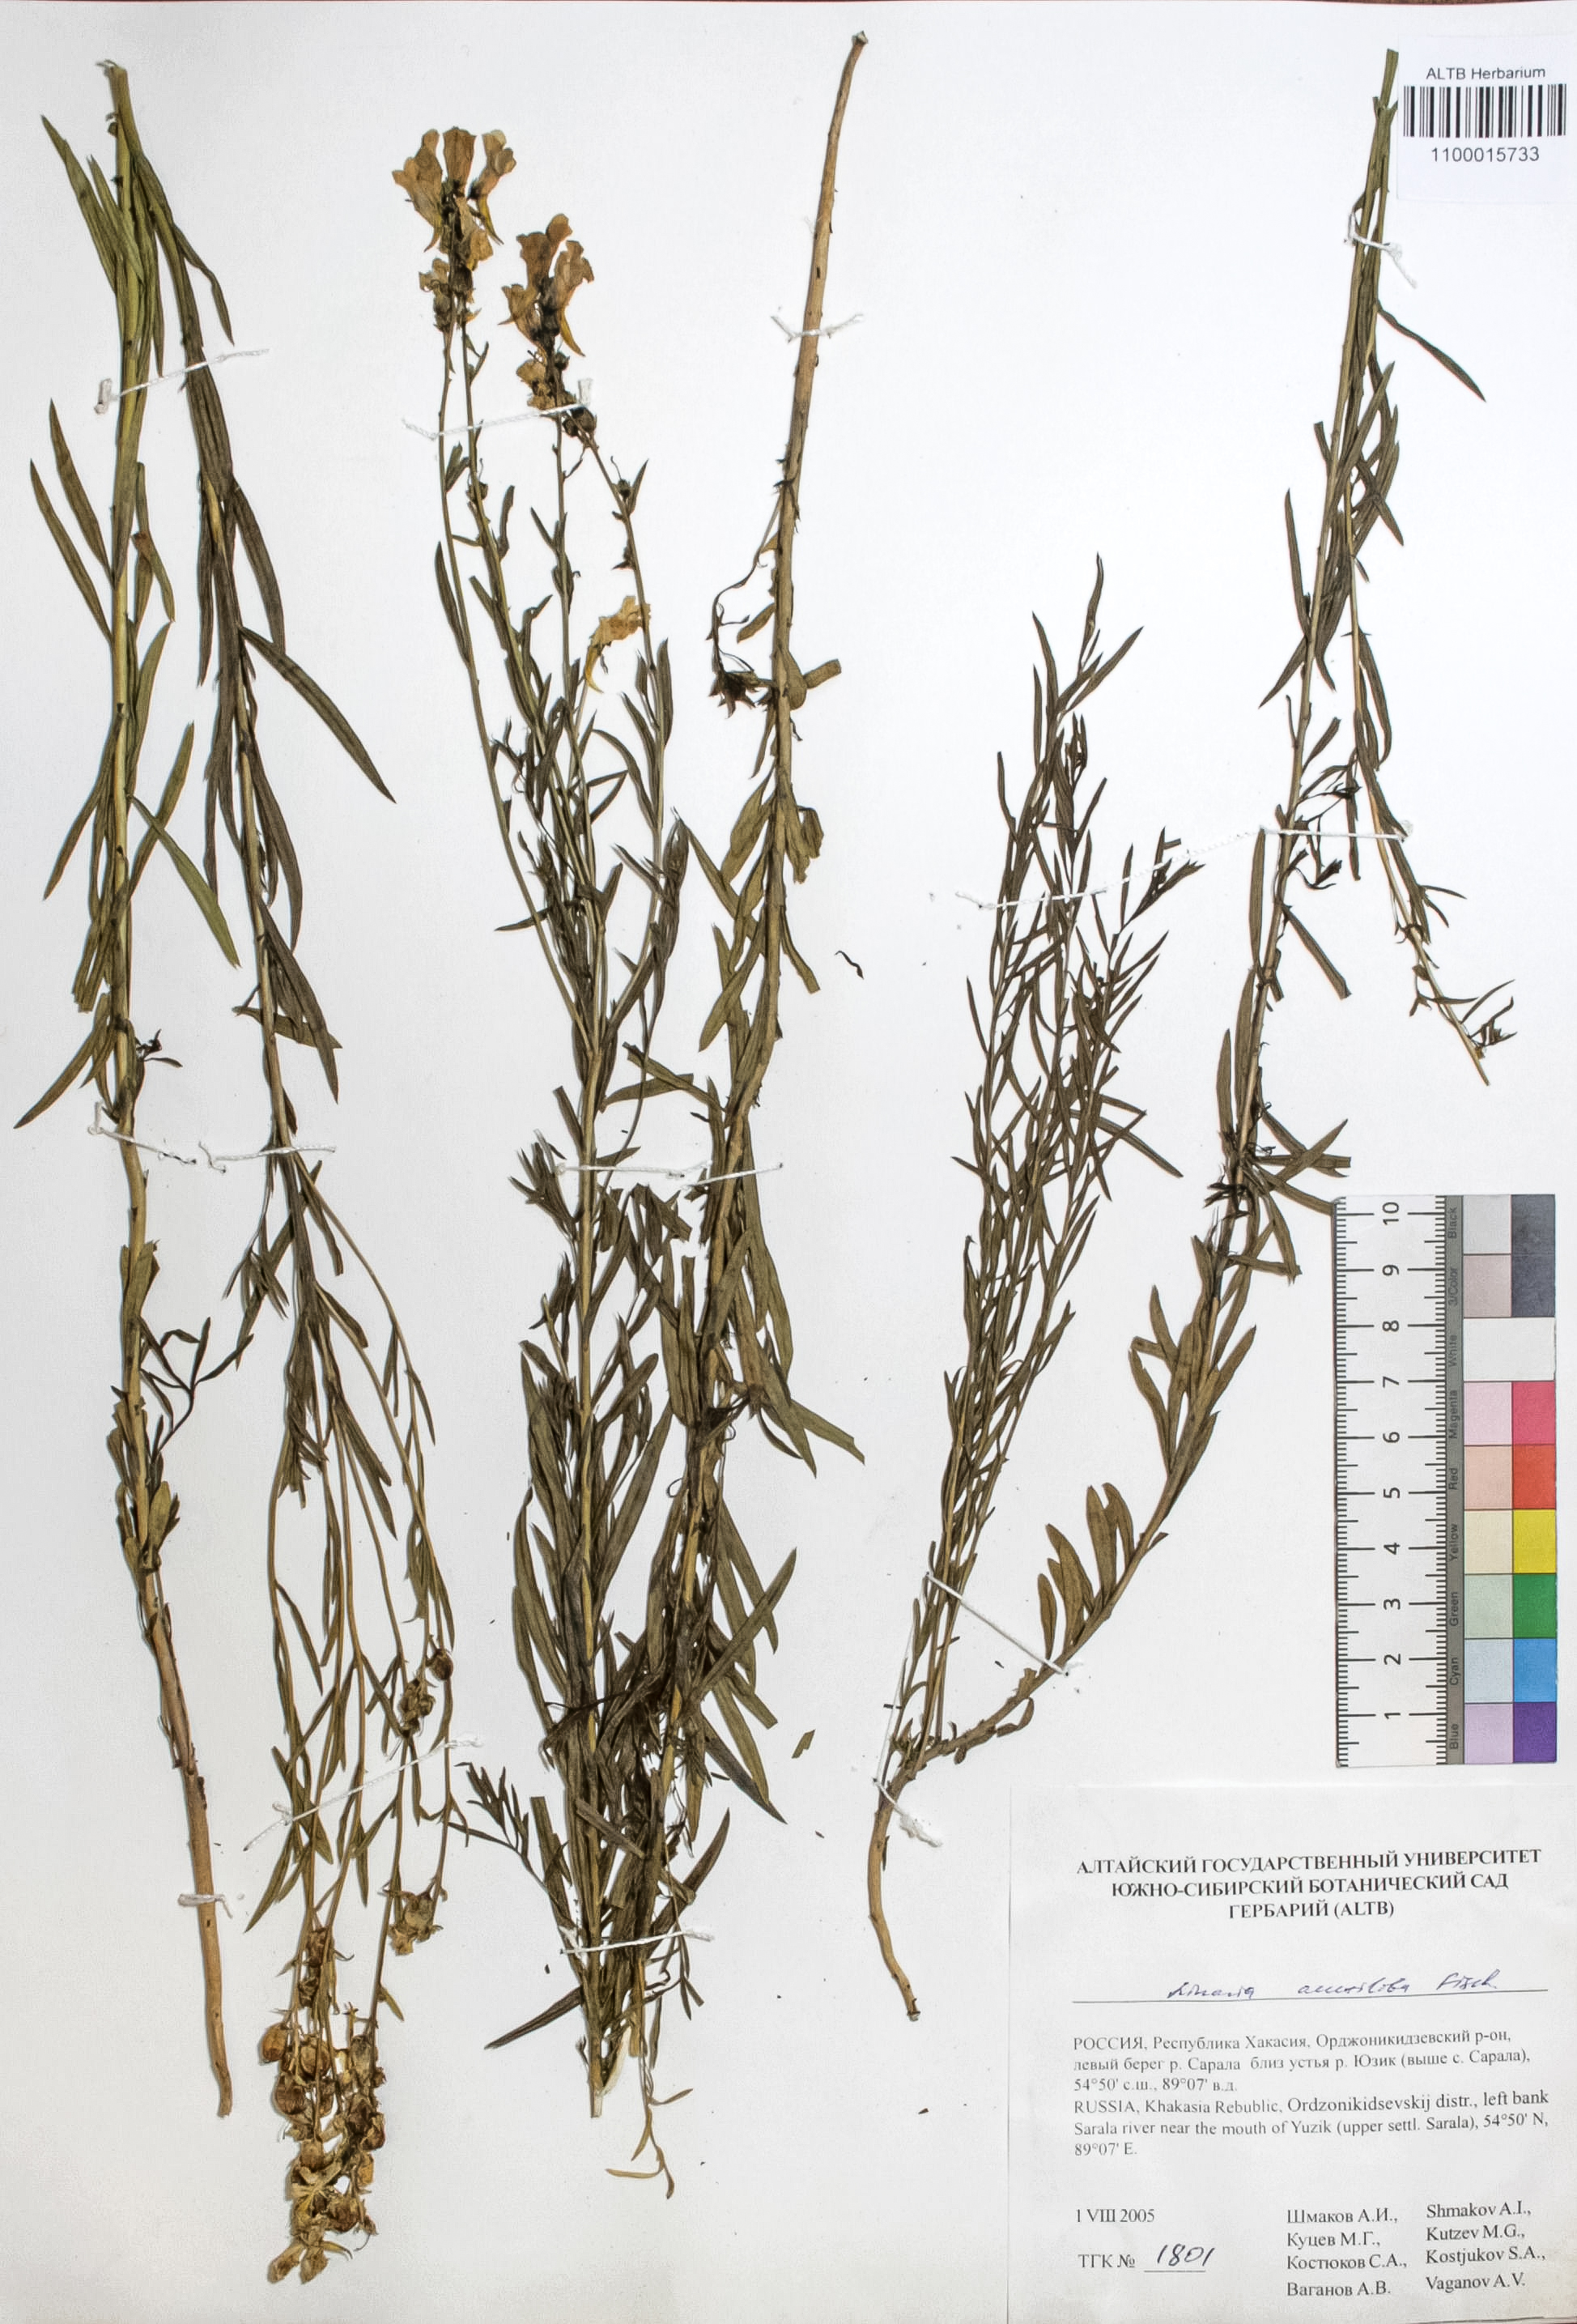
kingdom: Plantae
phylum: Tracheophyta
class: Magnoliopsida
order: Lamiales
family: Plantaginaceae
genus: Linaria
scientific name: Linaria acutiloba
